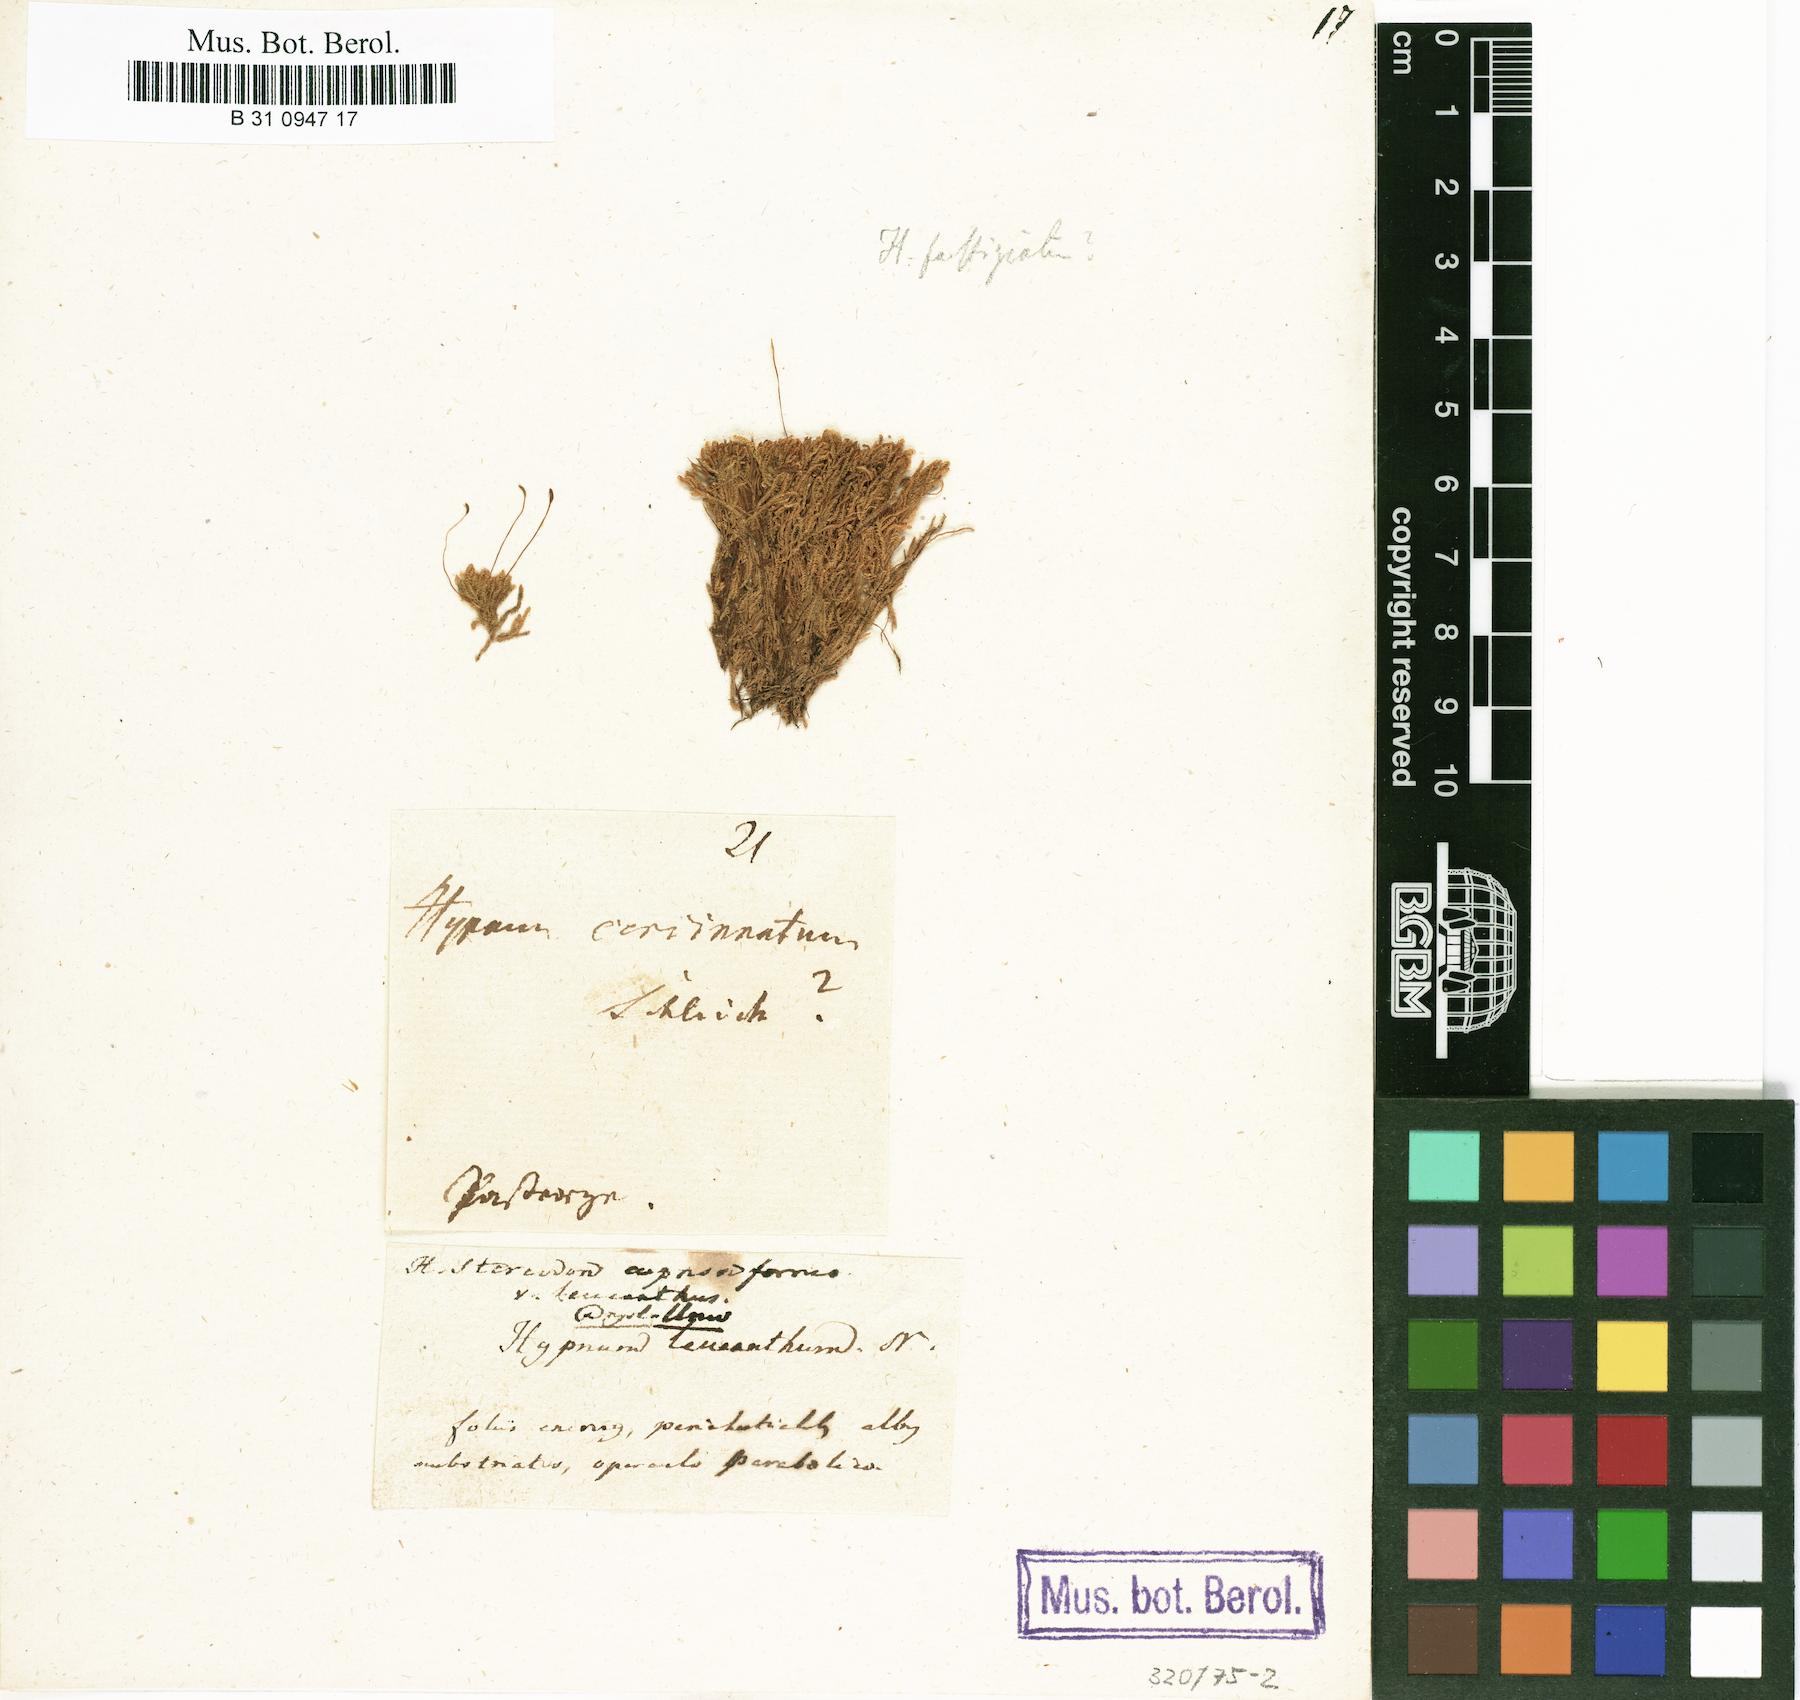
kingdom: Plantae
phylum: Bryophyta
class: Bryopsida
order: Hypnales
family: Hypnaceae
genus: Hypnum
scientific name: Hypnum cupressiforme
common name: Cypress-leaved plait-moss
